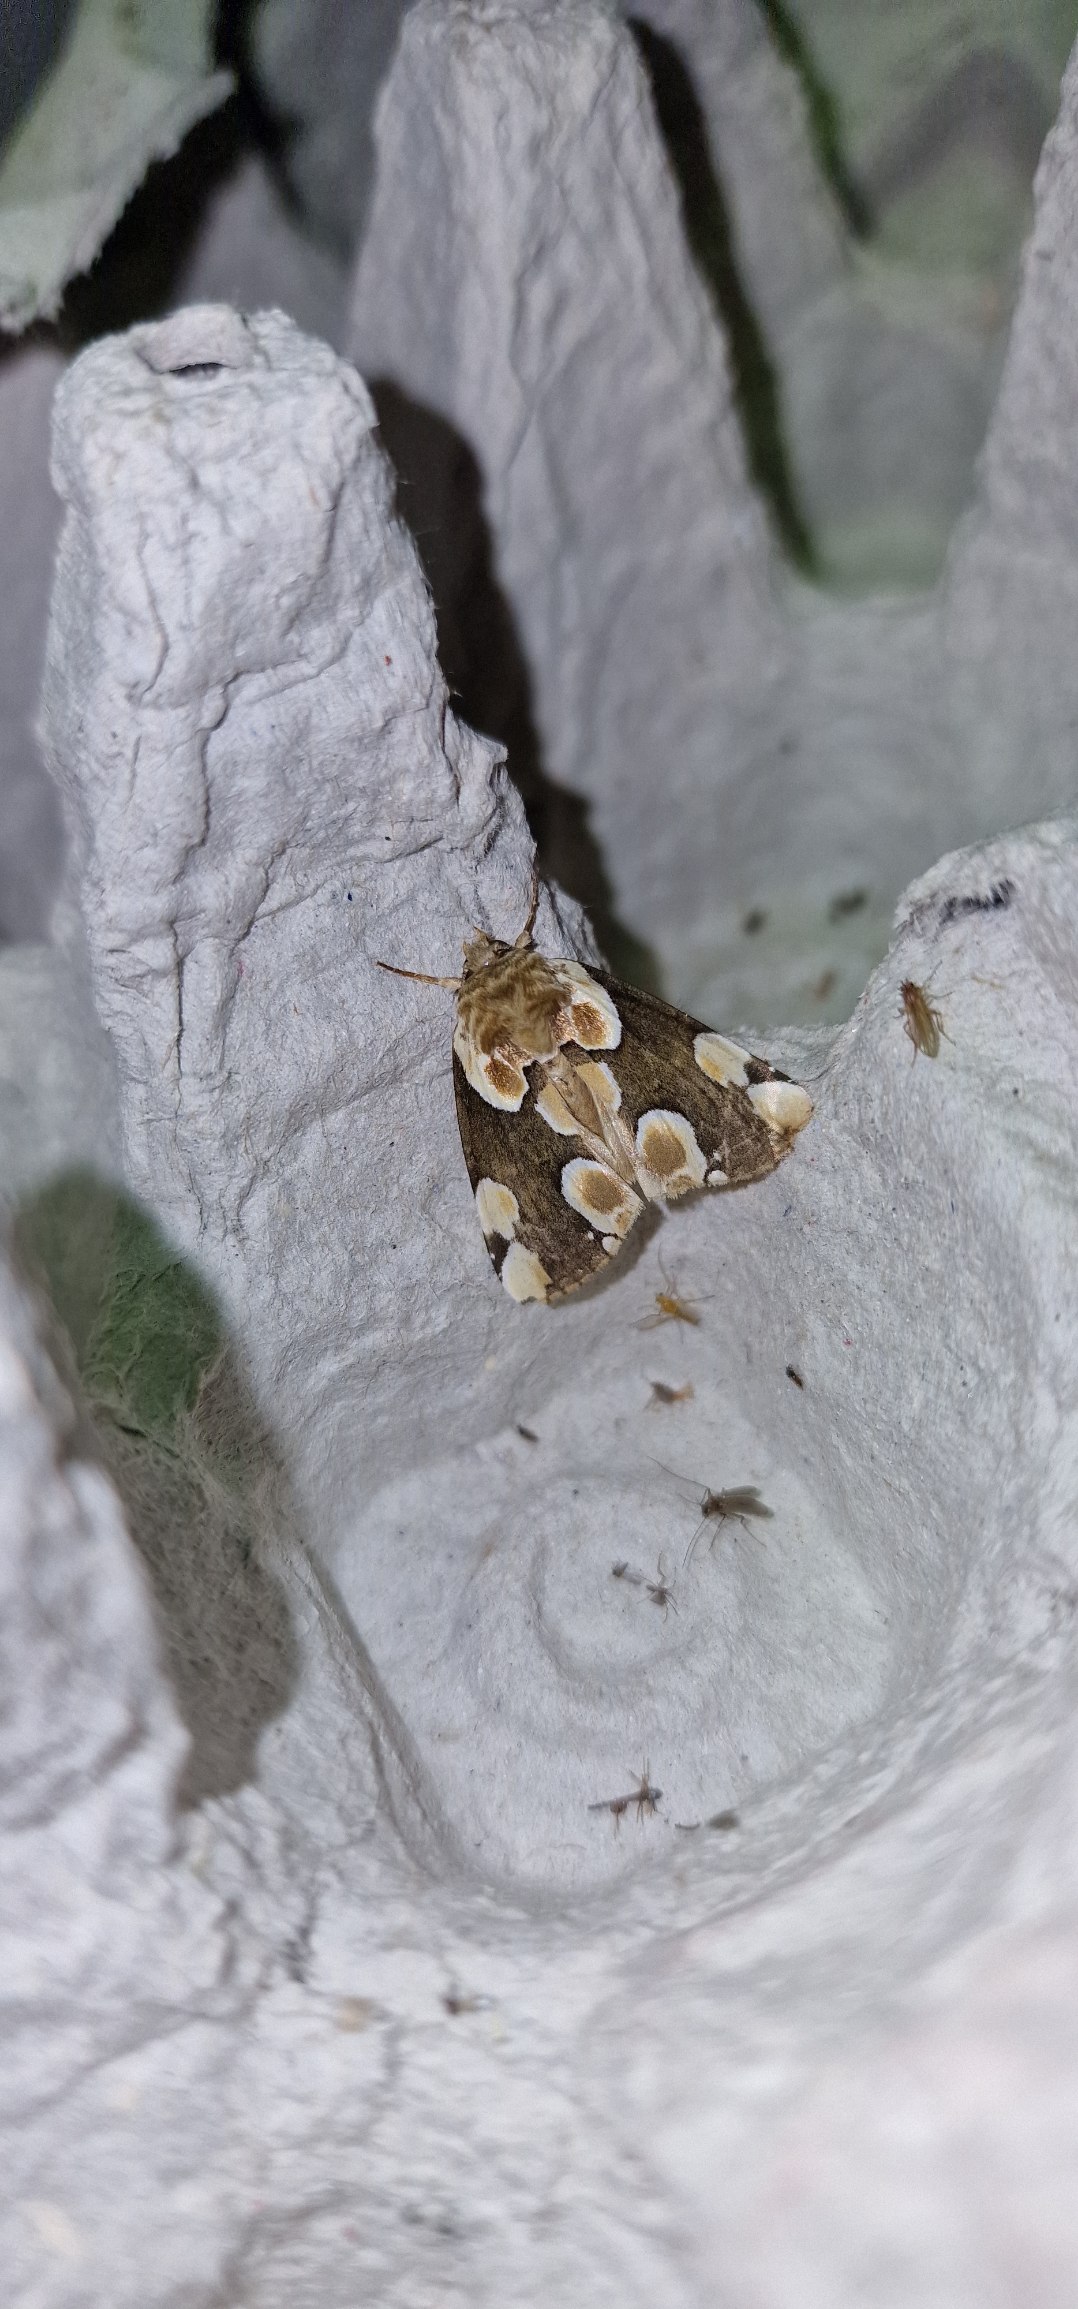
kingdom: Animalia
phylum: Arthropoda
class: Insecta
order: Lepidoptera
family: Drepanidae
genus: Thyatira
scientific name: Thyatira batis
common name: Rosenplet
